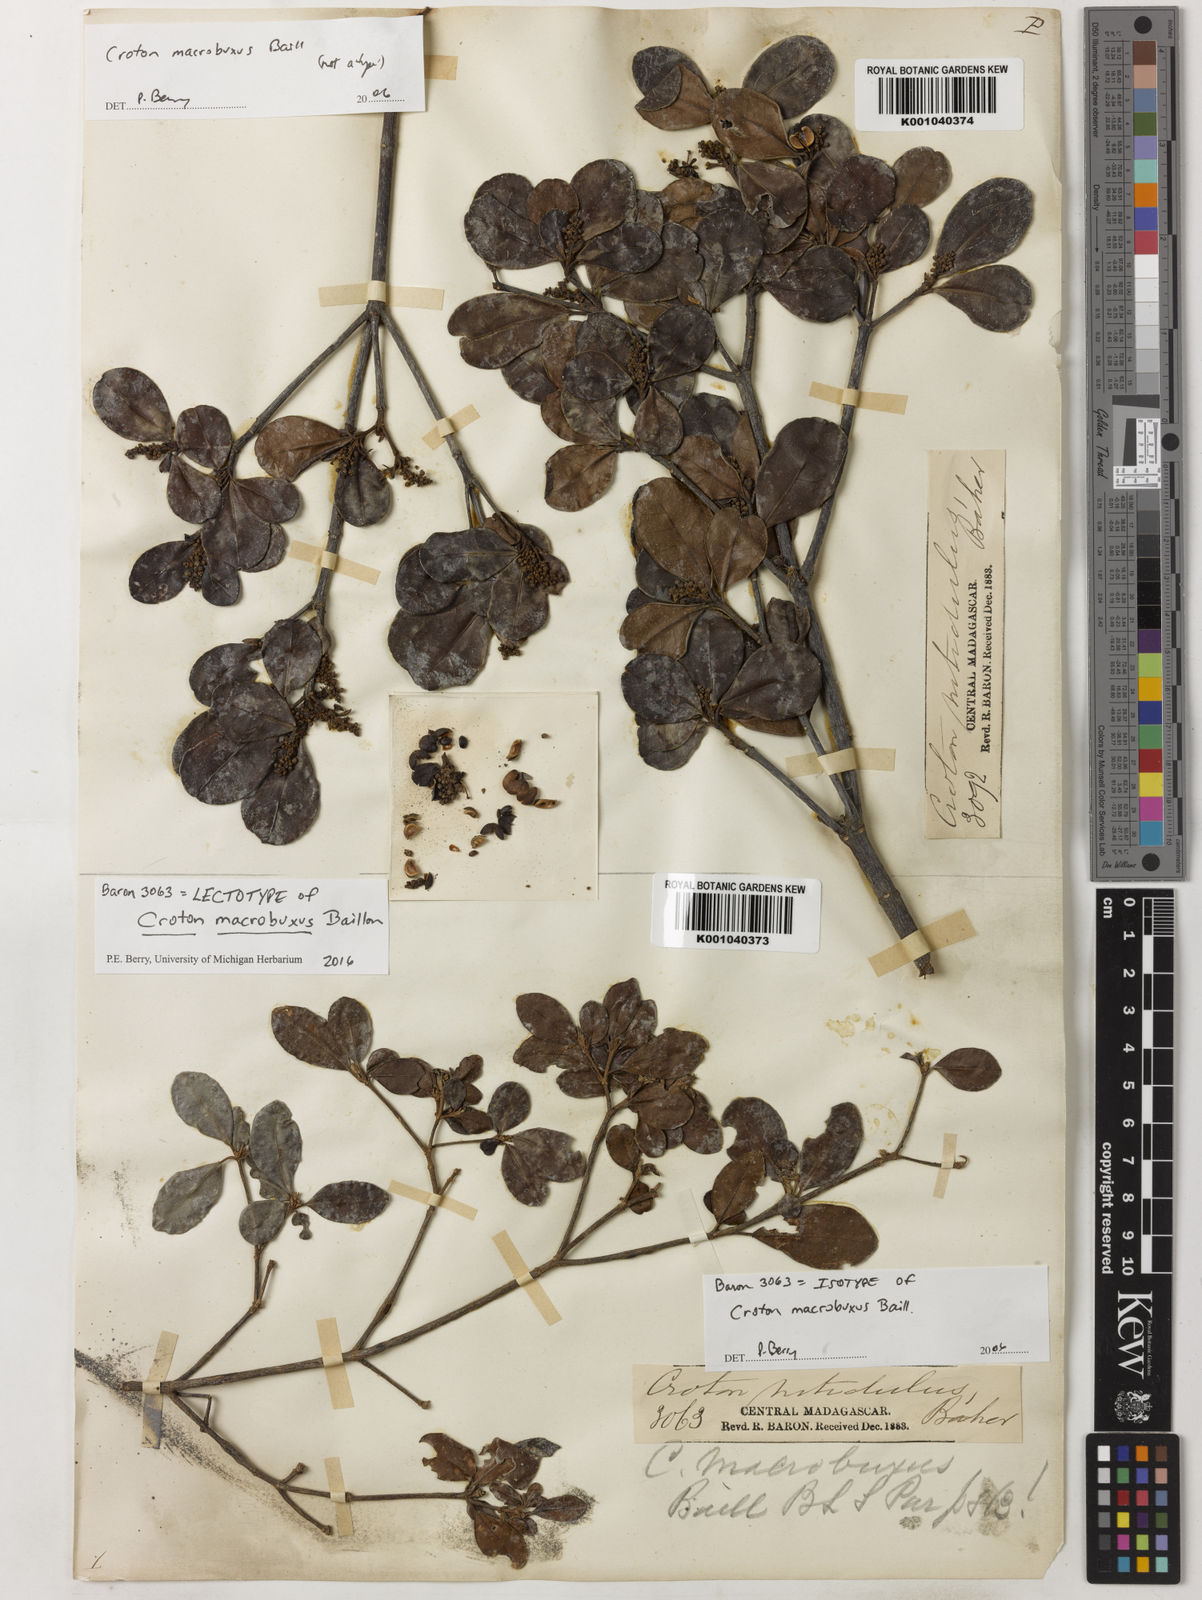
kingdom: Plantae
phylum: Tracheophyta
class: Magnoliopsida
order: Malpighiales
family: Euphorbiaceae
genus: Croton
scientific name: Croton macrobuxus
